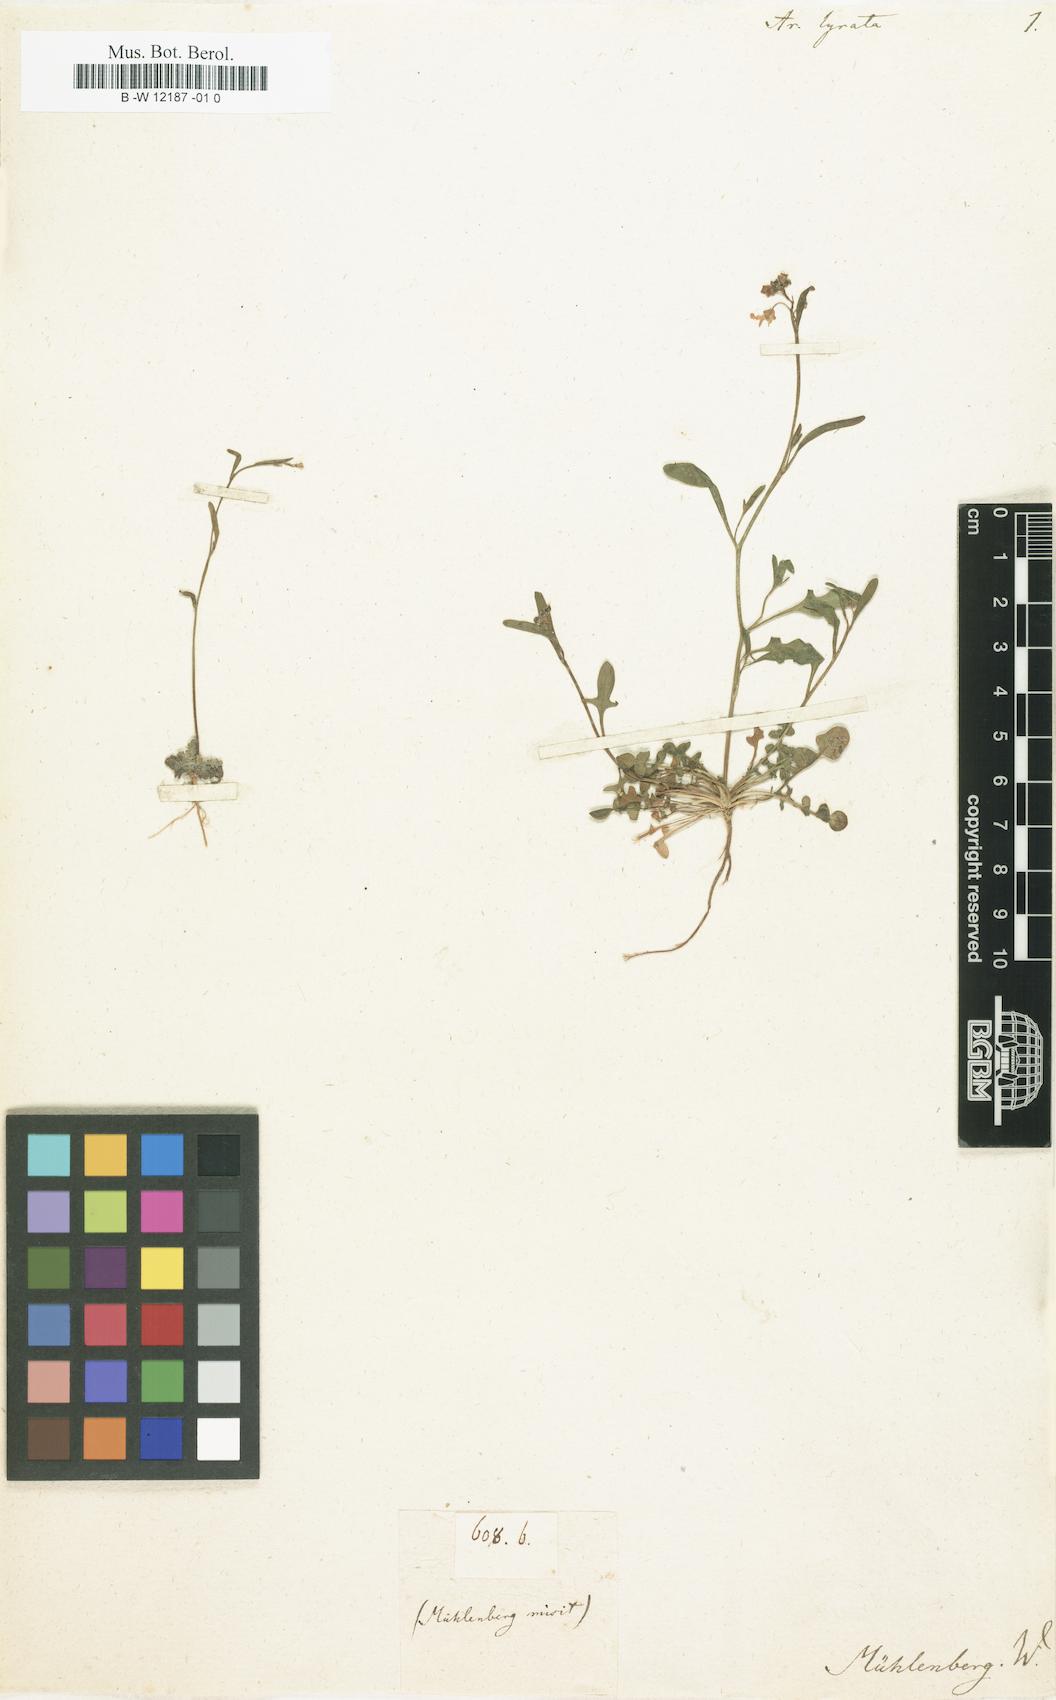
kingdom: Plantae
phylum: Tracheophyta
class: Magnoliopsida
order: Brassicales
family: Brassicaceae
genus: Arabidopsis
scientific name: Arabidopsis lyrata
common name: Lyrate rockcress
